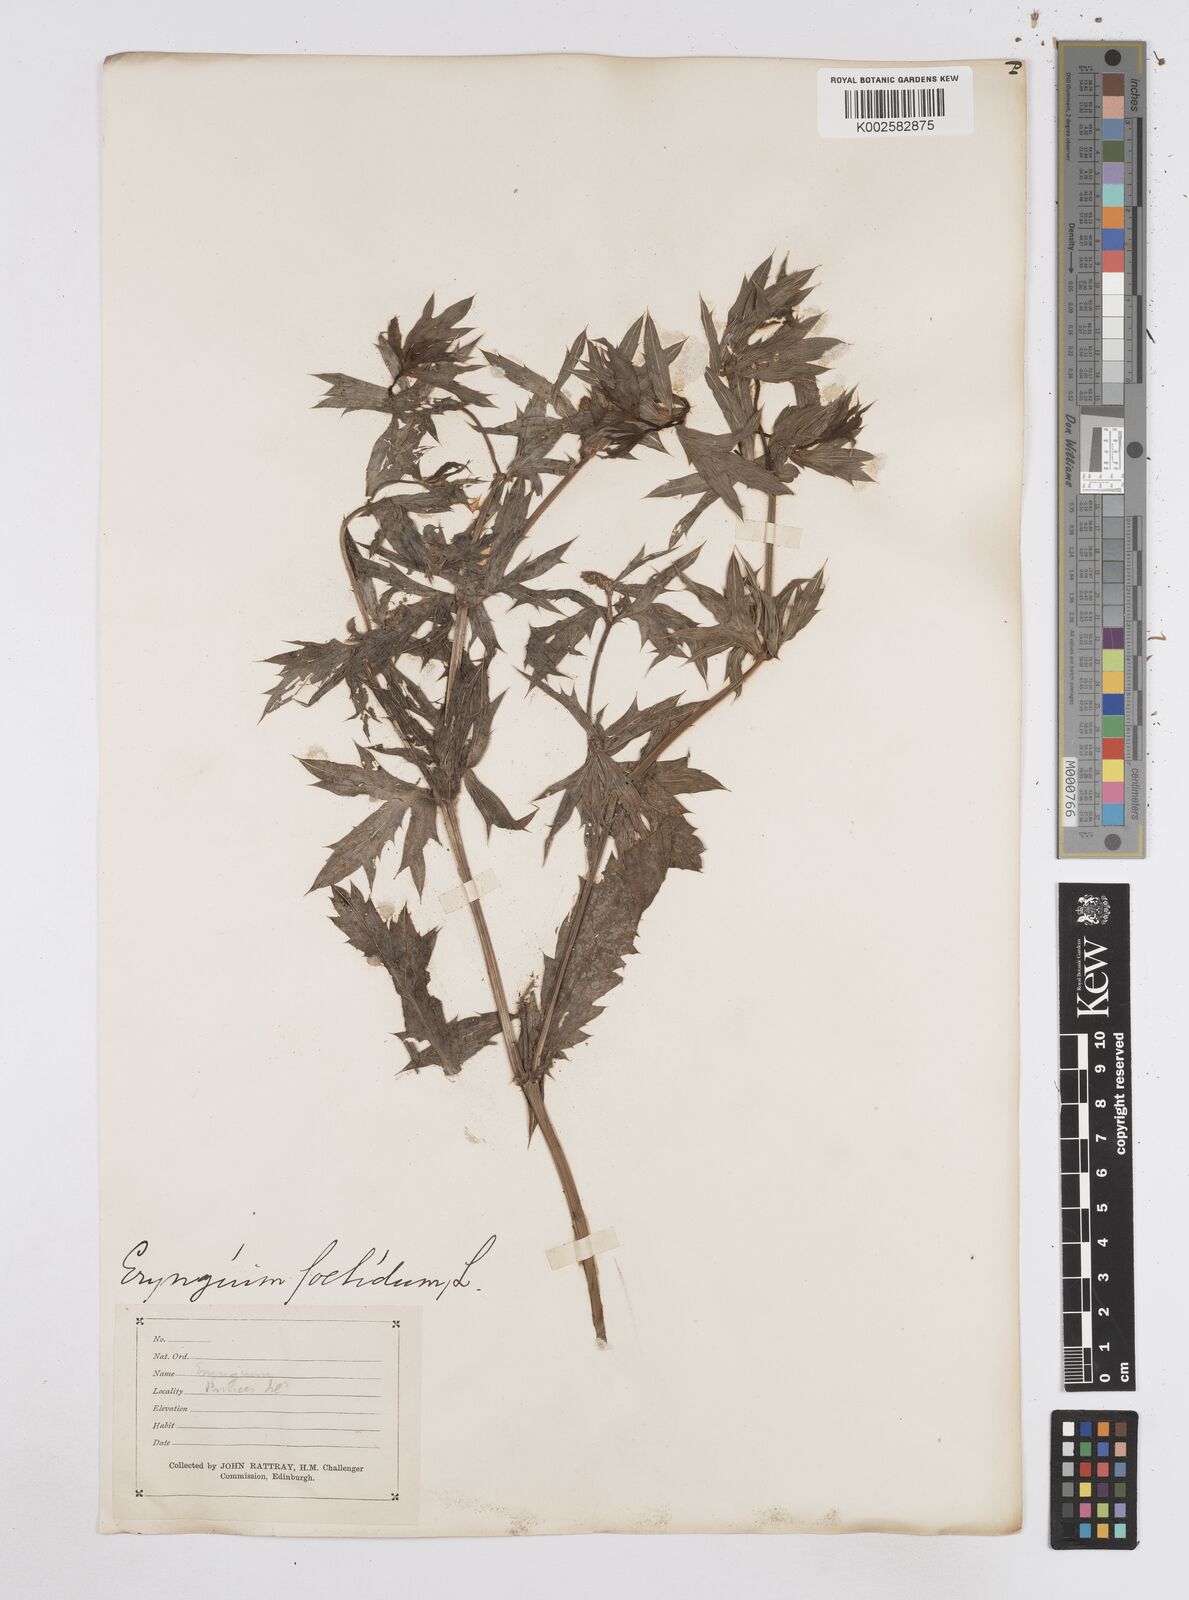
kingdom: Plantae
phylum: Tracheophyta
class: Magnoliopsida
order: Apiales
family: Apiaceae
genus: Eryngium
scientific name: Eryngium foetidum
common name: Fitweed
